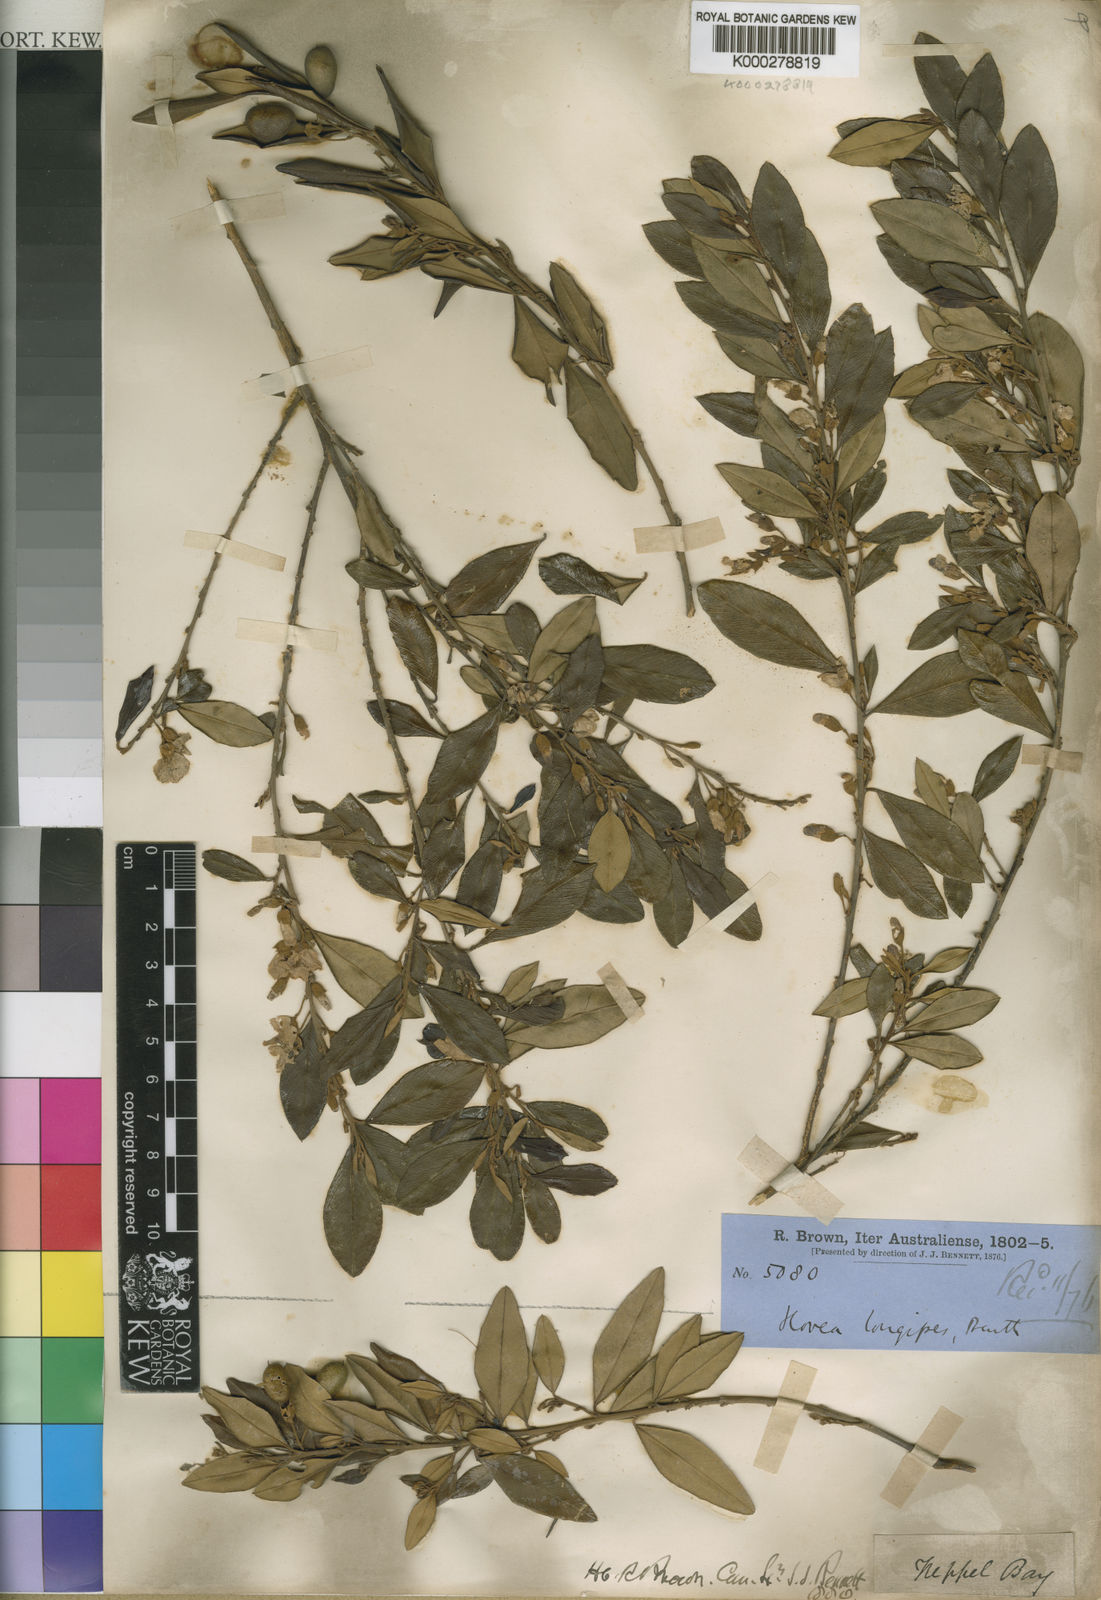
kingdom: Plantae
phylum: Tracheophyta
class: Magnoliopsida
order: Fabales
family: Fabaceae
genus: Hovea
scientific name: Hovea longipes
